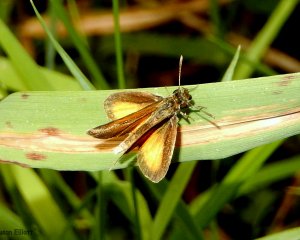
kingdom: Animalia
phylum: Arthropoda
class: Insecta
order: Lepidoptera
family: Hesperiidae
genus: Ancyloxypha
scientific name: Ancyloxypha numitor
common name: Least Skipper
